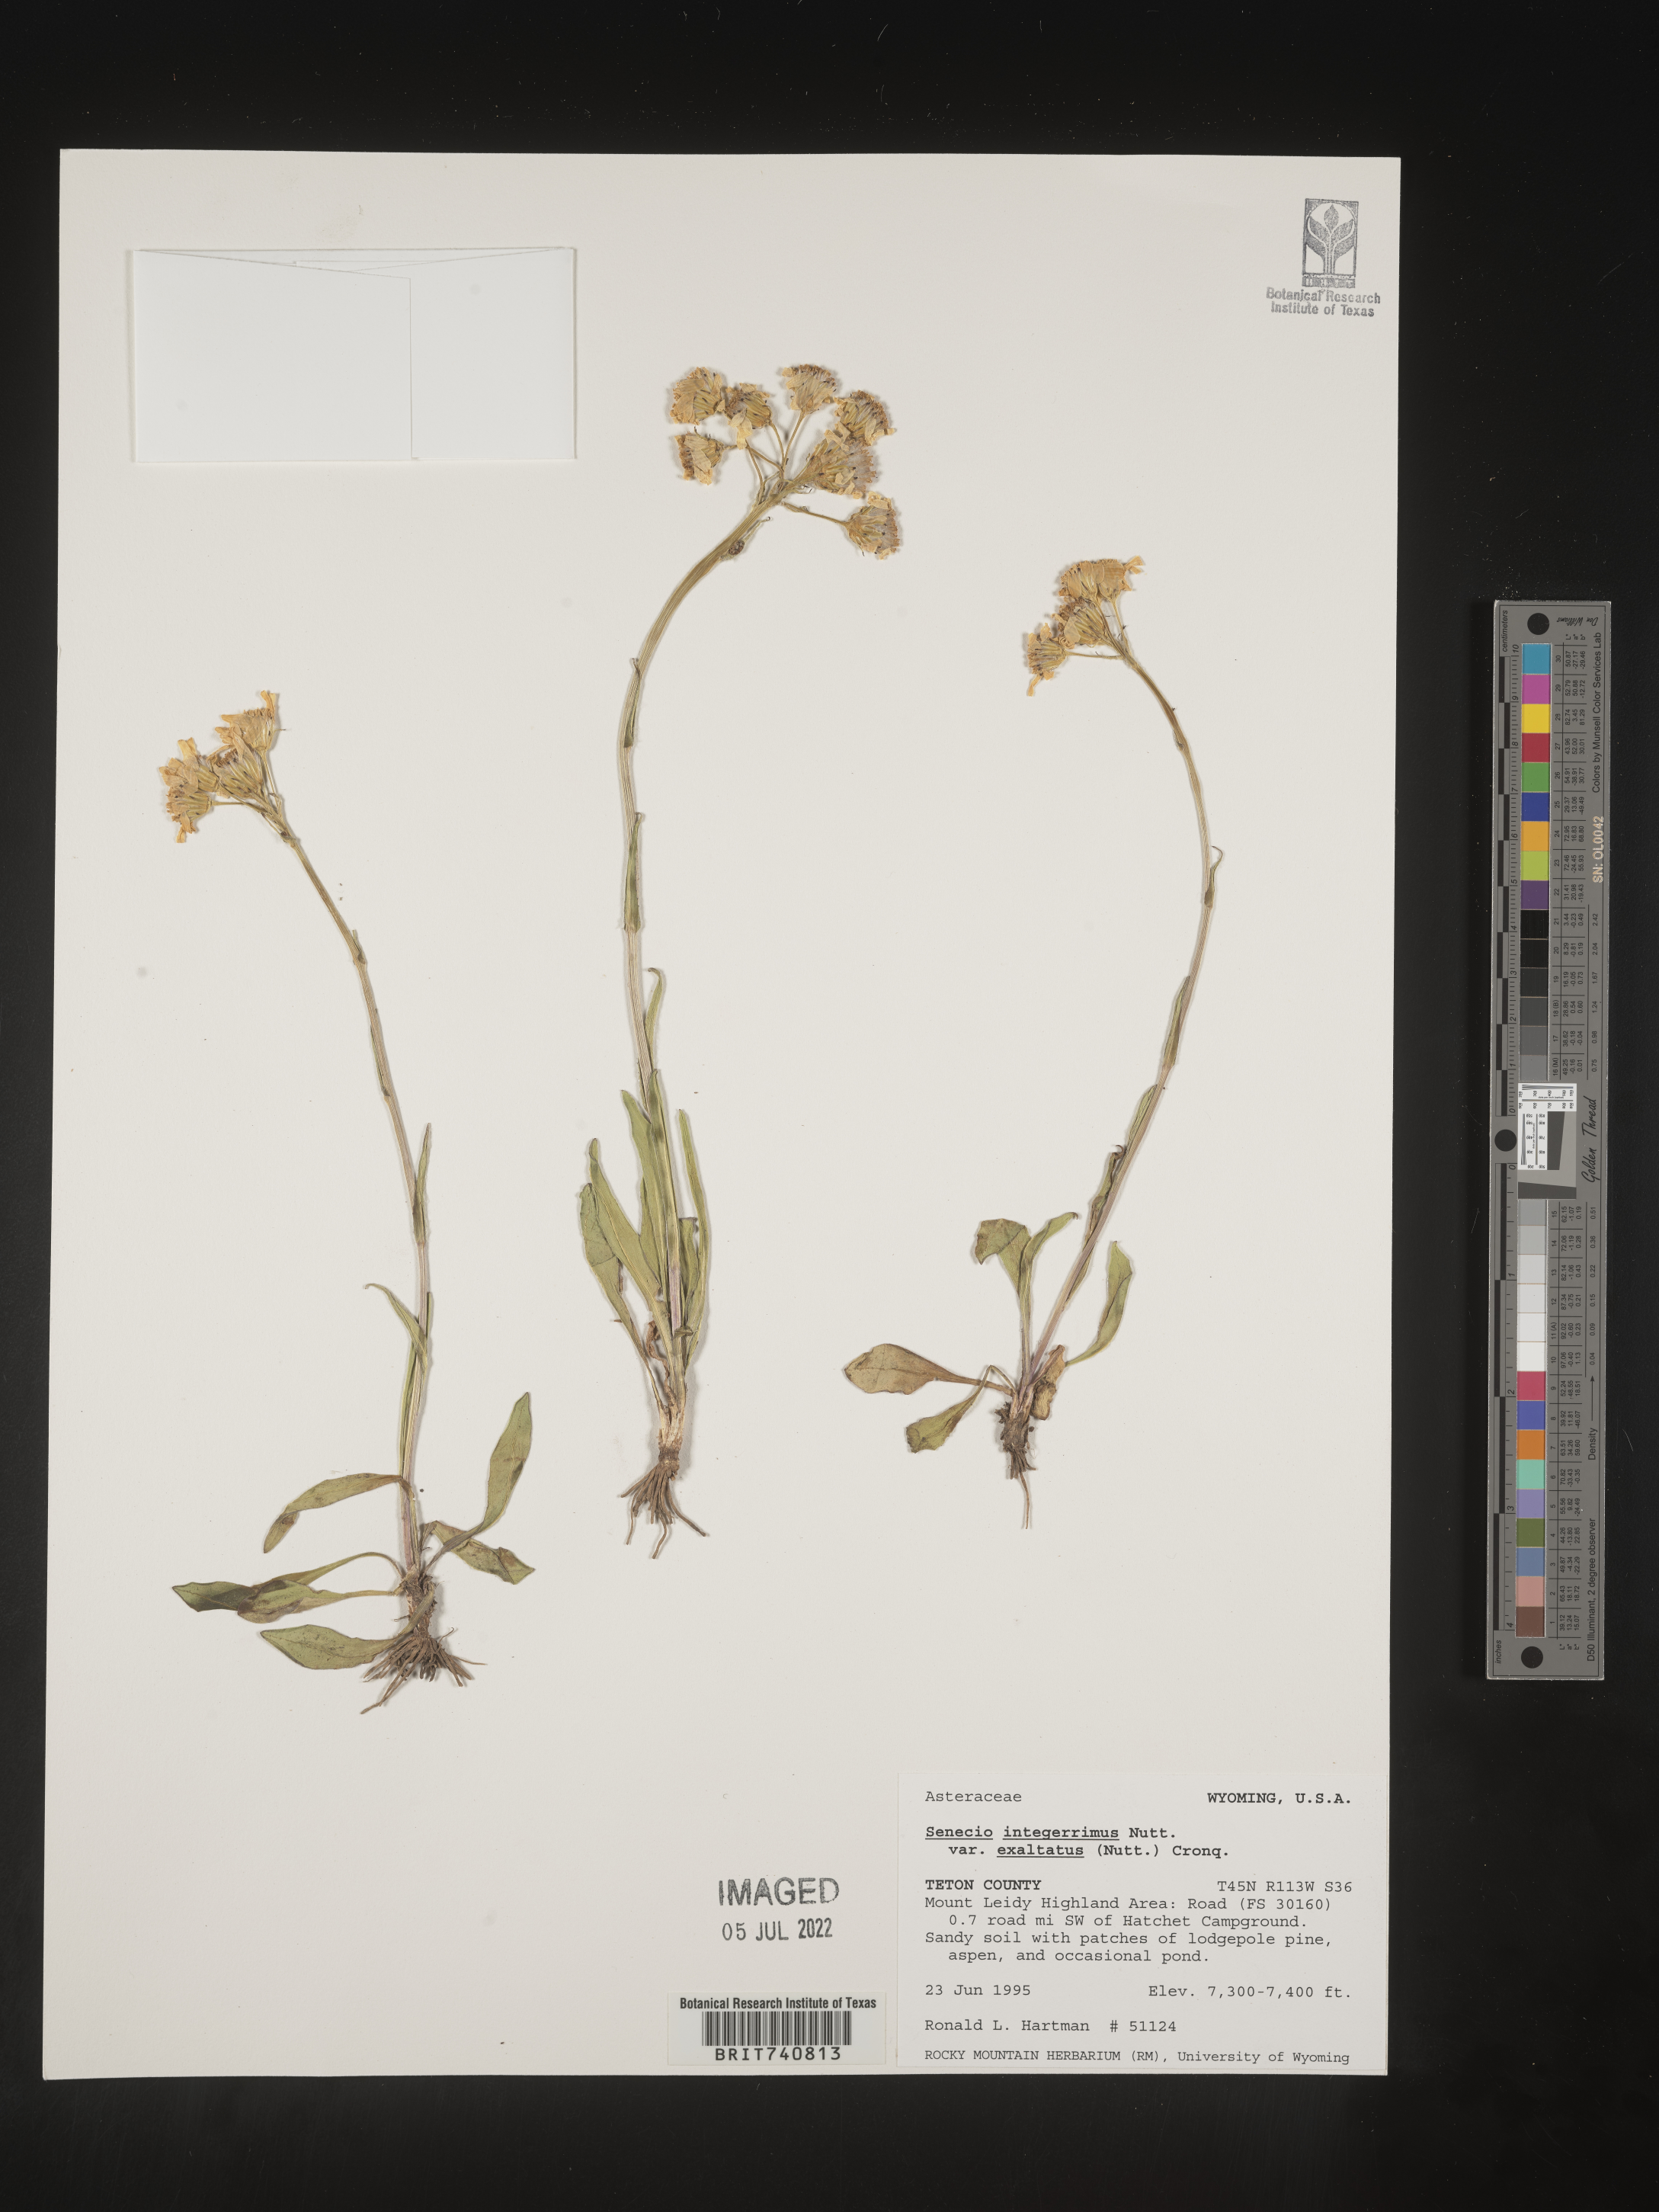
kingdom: Plantae
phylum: Tracheophyta
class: Magnoliopsida
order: Asterales
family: Asteraceae
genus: Senecio
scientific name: Senecio integerrimus
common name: Gaugeplant
